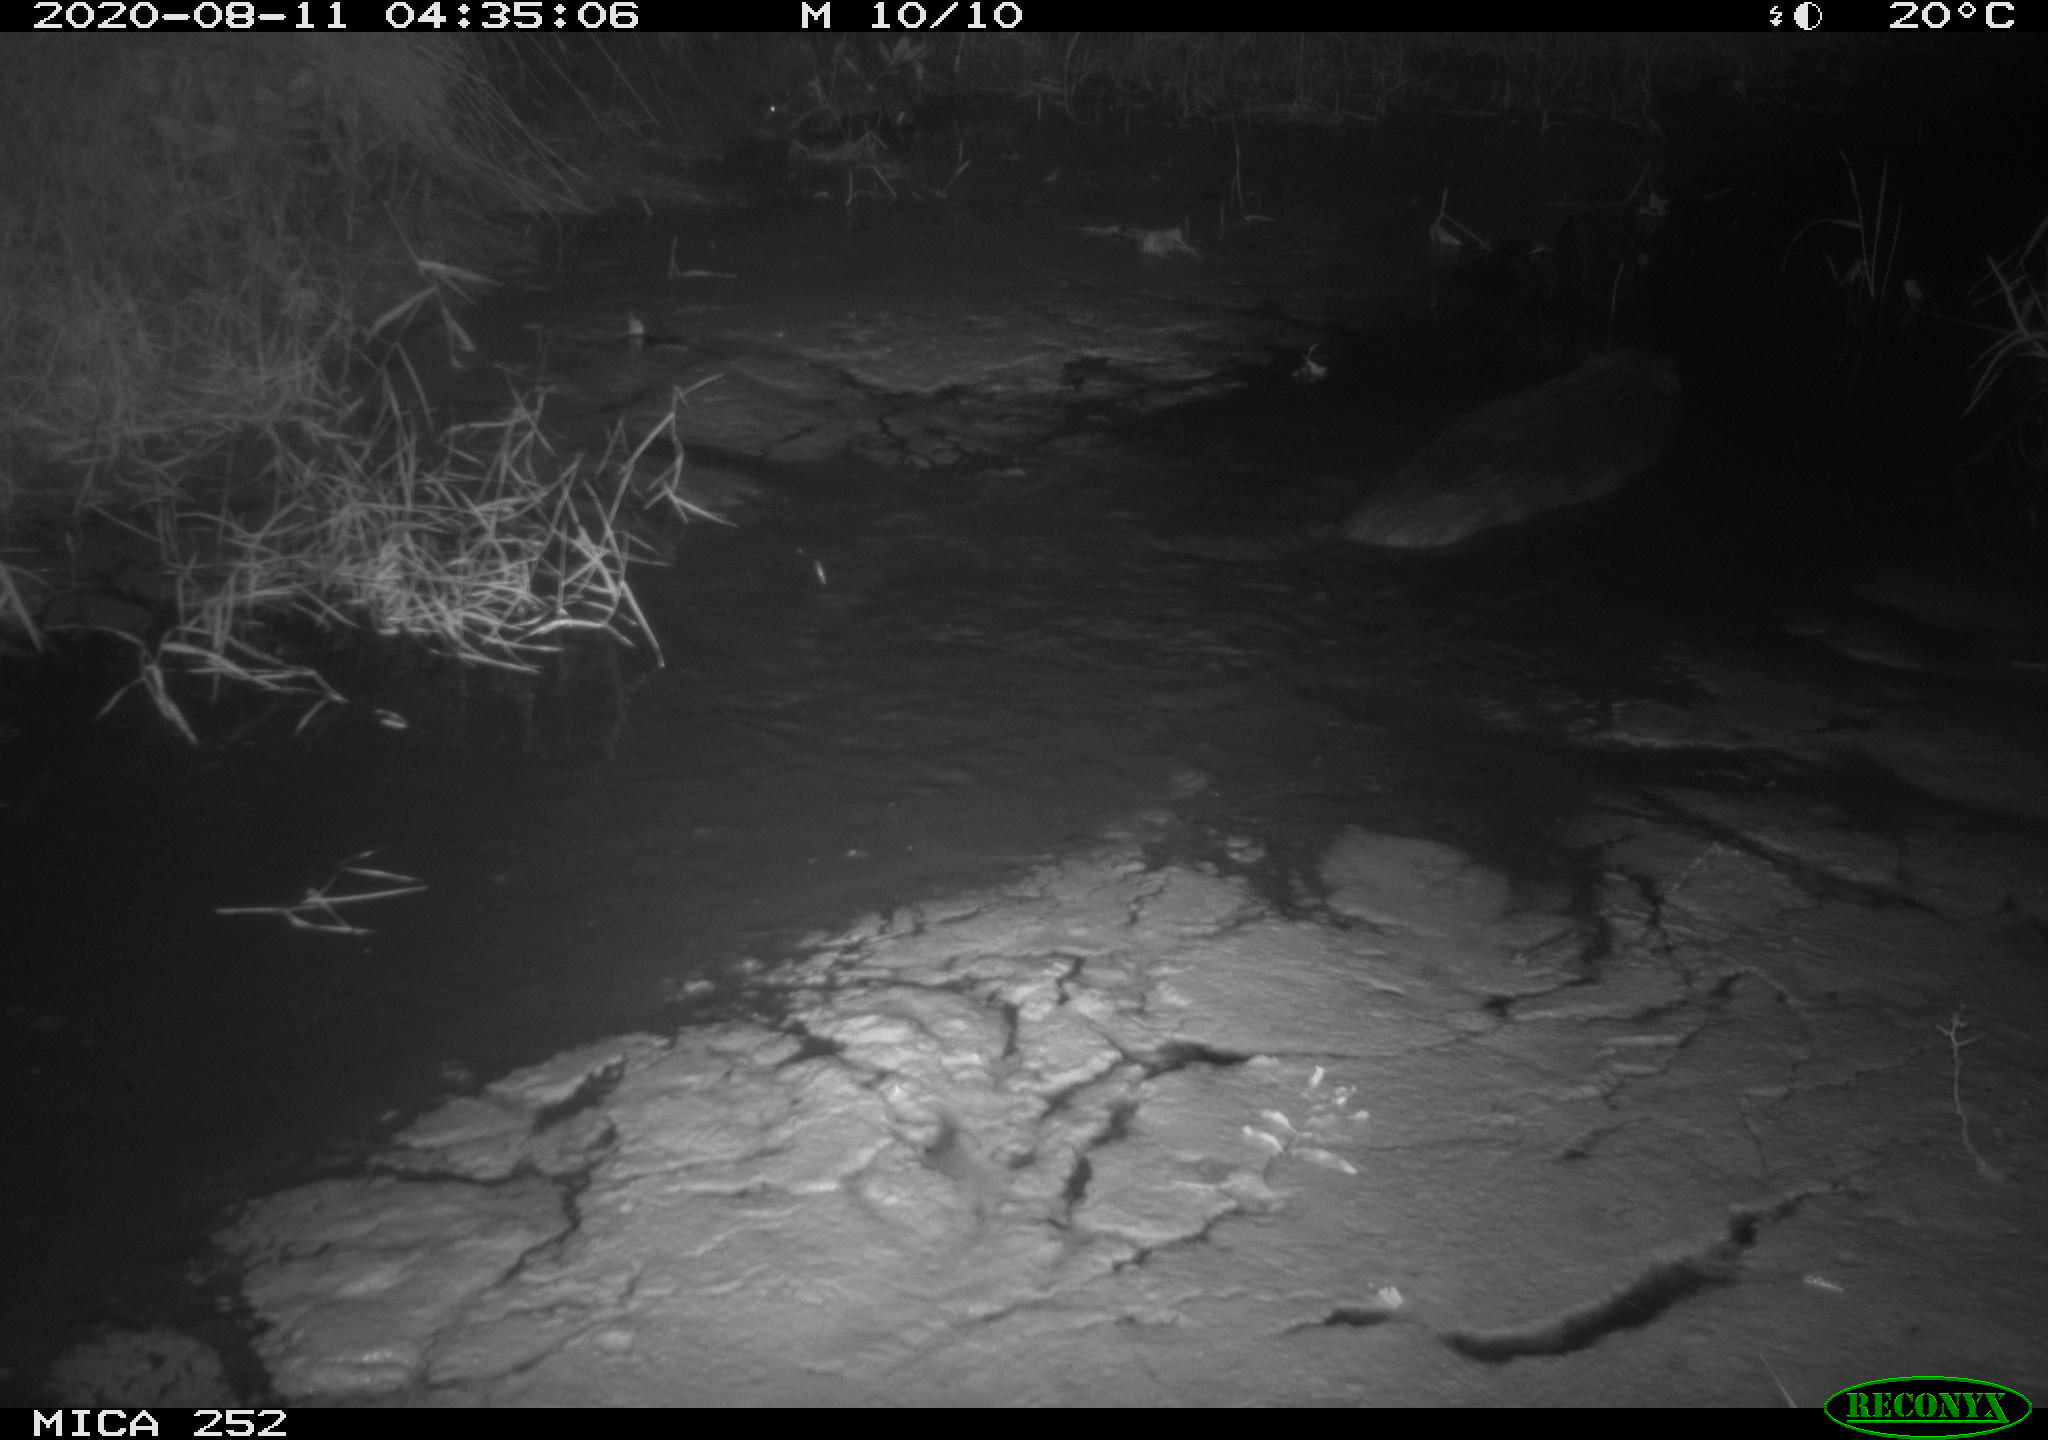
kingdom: Animalia
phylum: Chordata
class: Mammalia
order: Rodentia
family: Castoridae
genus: Castor
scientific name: Castor fiber
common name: Eurasian beaver
